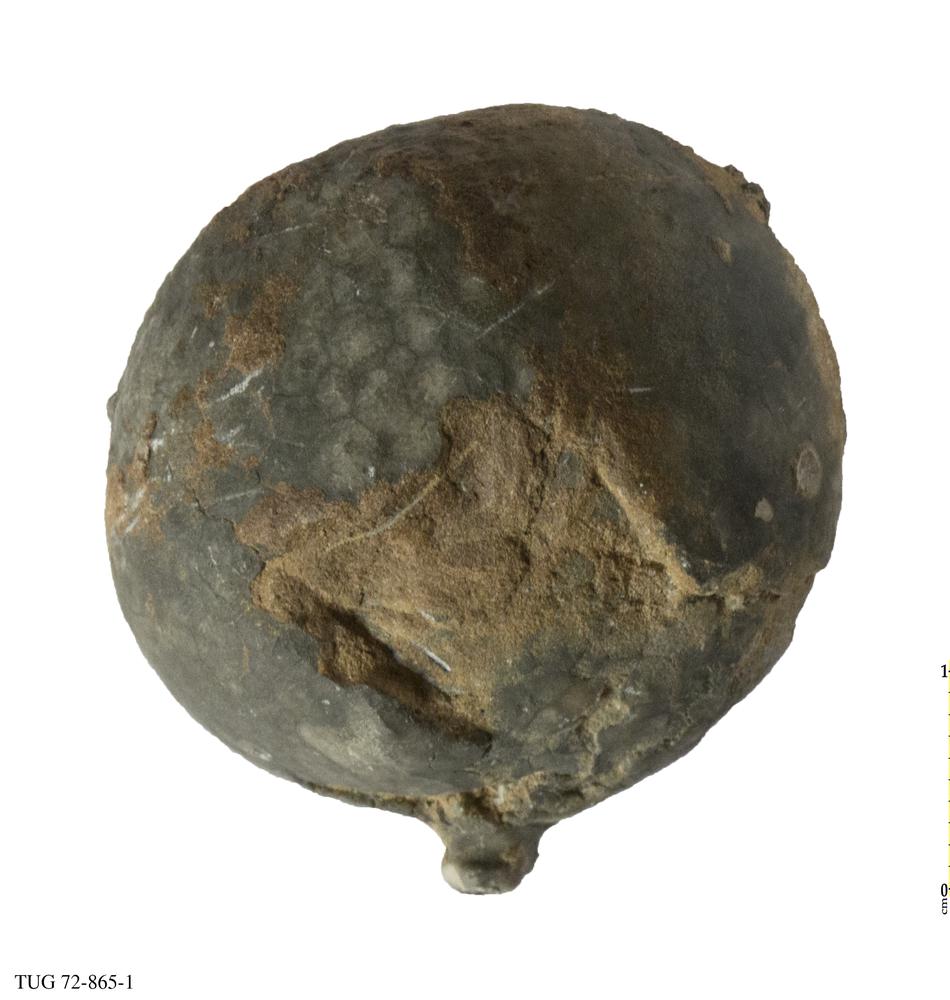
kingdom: Animalia
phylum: Echinodermata
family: Echinosphaeritidae
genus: Echinosphaerites
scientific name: Echinosphaerites
